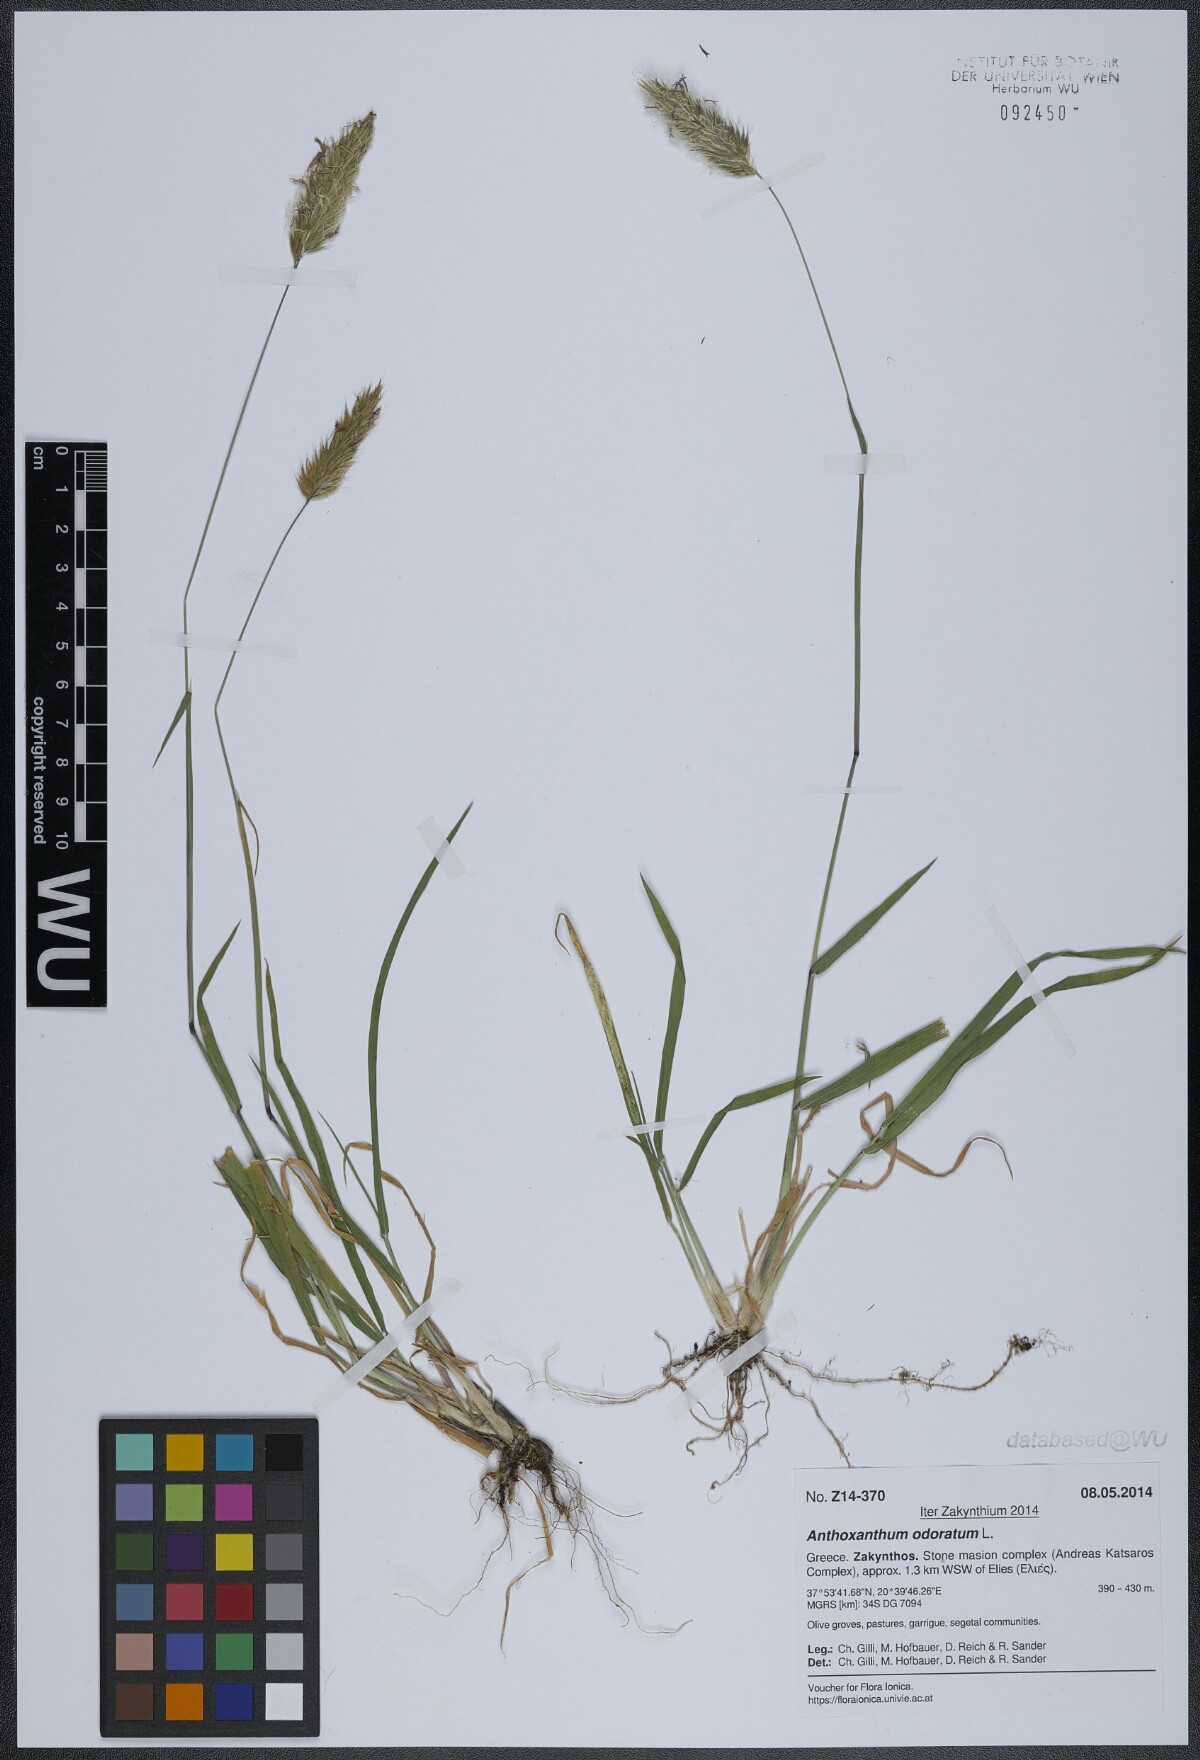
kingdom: Plantae
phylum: Tracheophyta
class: Liliopsida
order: Poales
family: Poaceae
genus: Anthoxanthum
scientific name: Anthoxanthum odoratum
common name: Sweet vernalgrass
